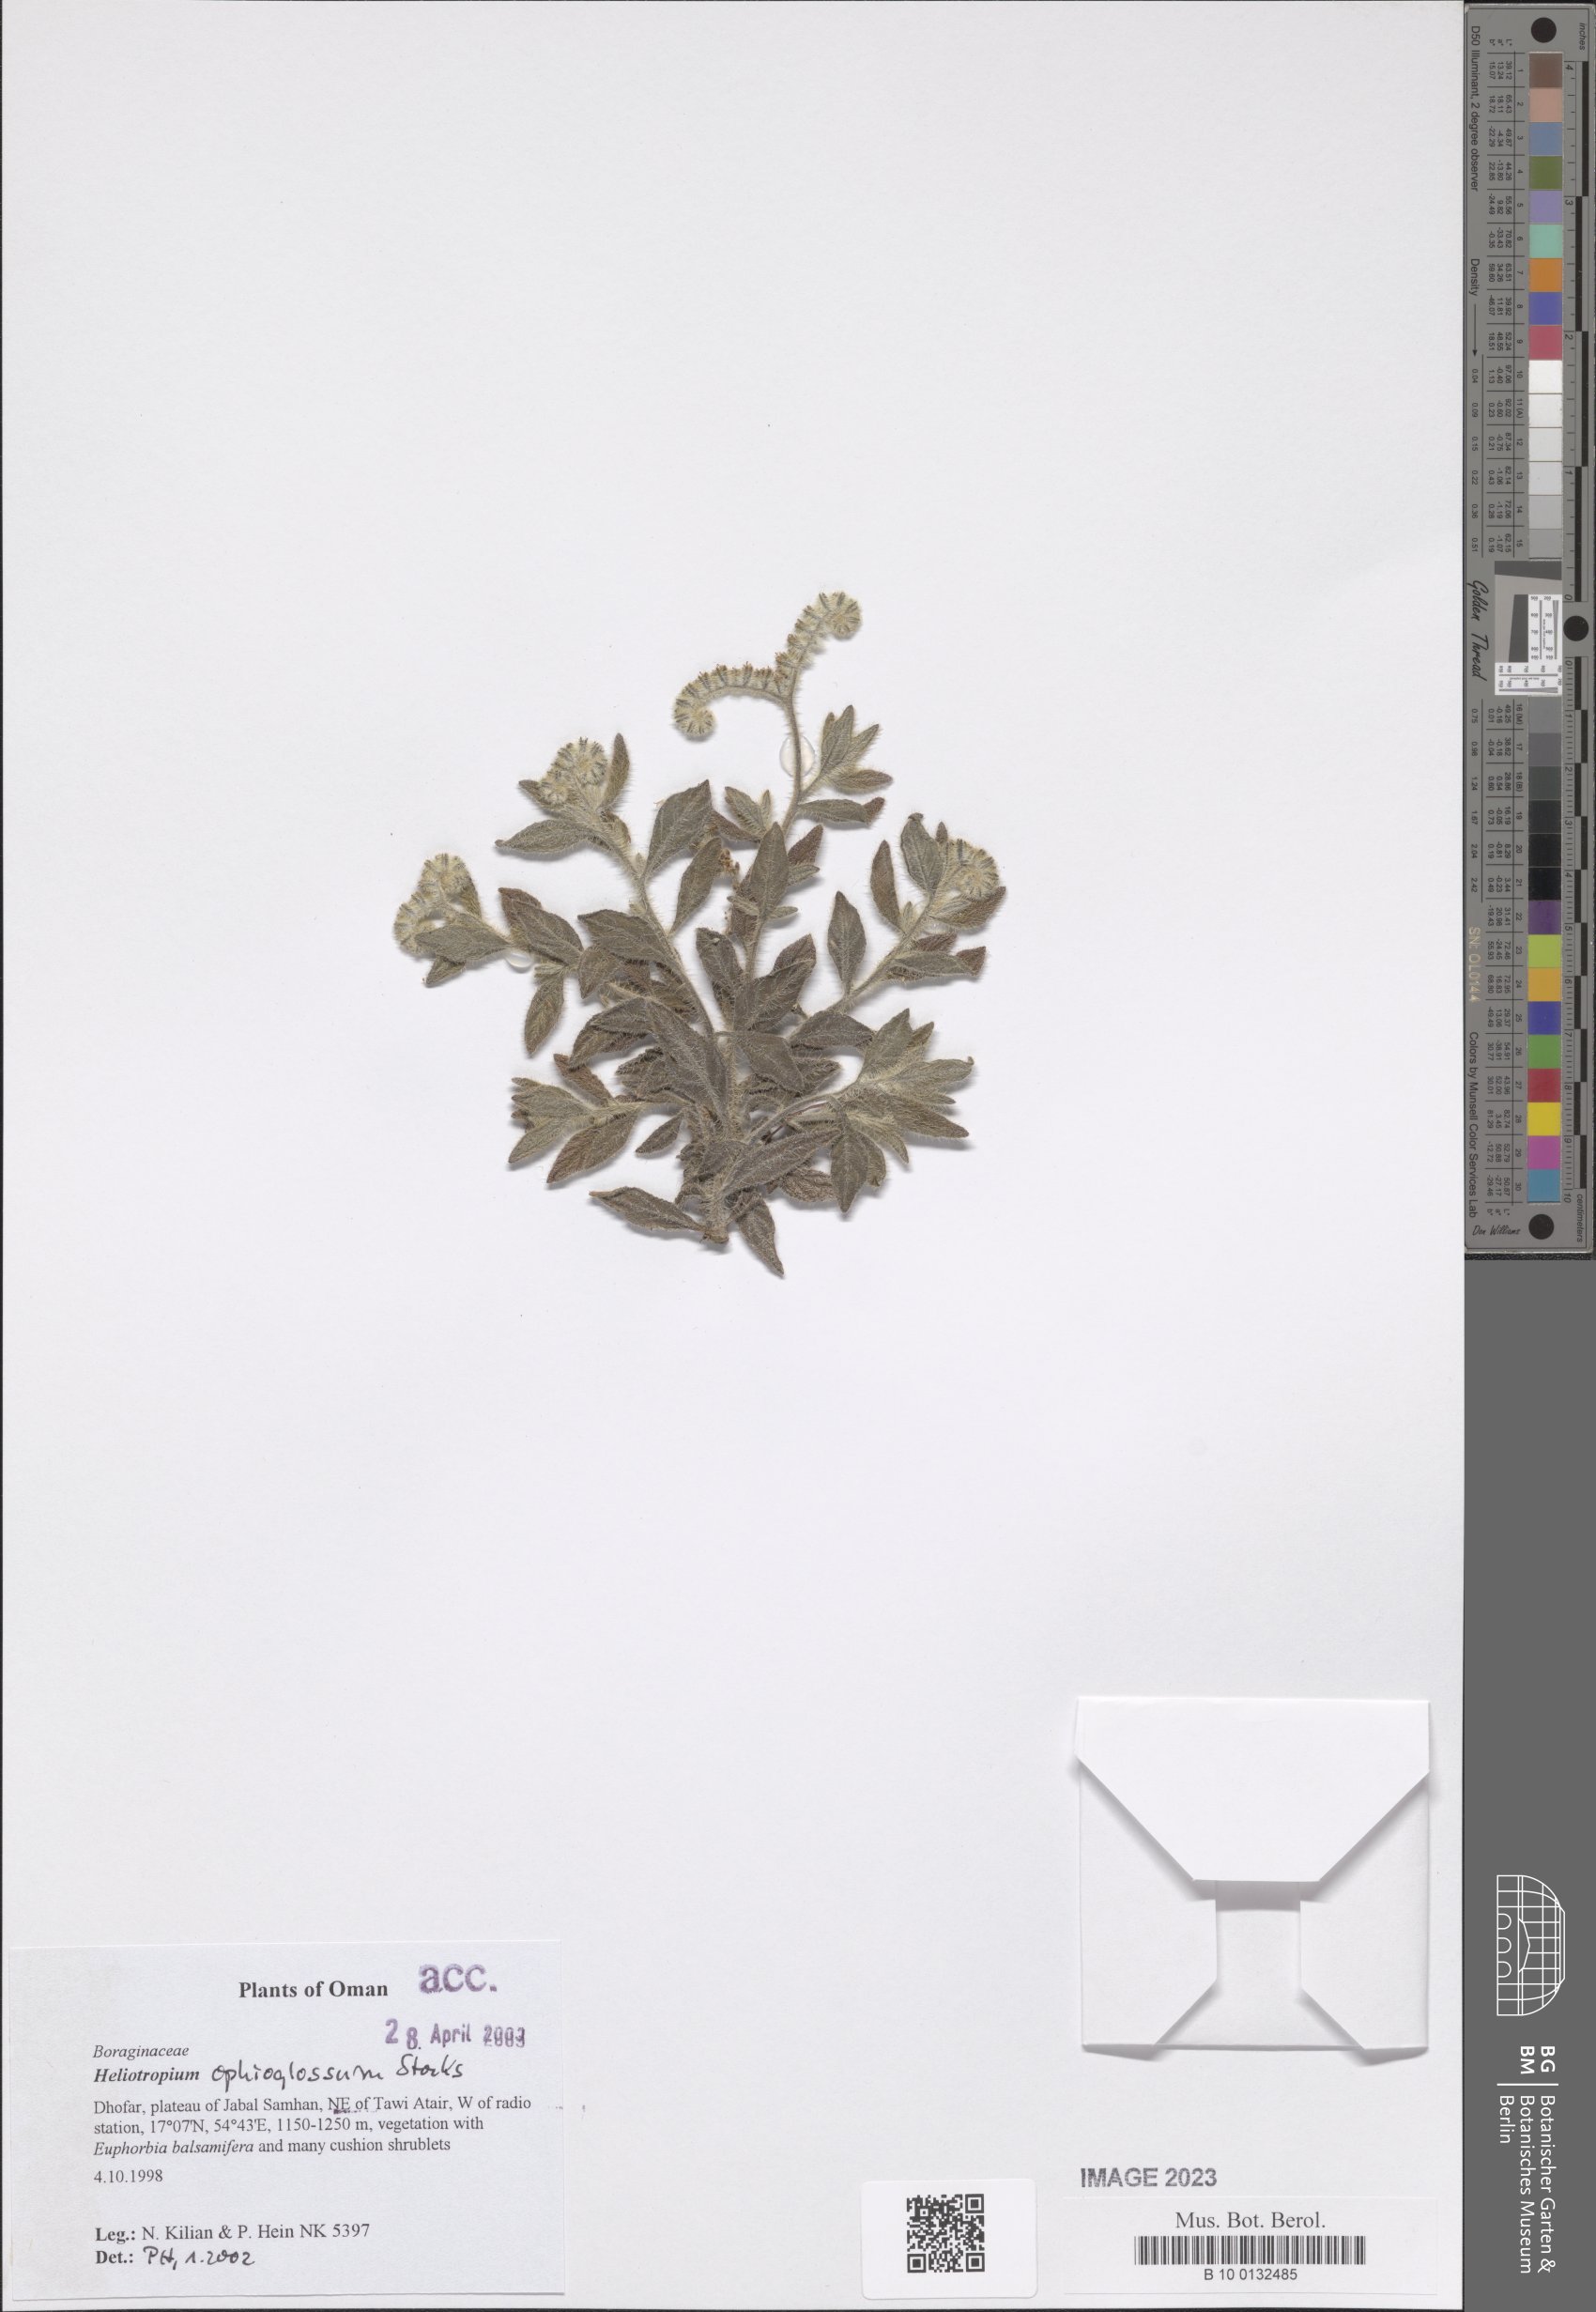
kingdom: Plantae
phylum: Tracheophyta
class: Magnoliopsida
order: Boraginales
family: Heliotropiaceae
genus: Heliotropium
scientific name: Heliotropium ophioglossum
